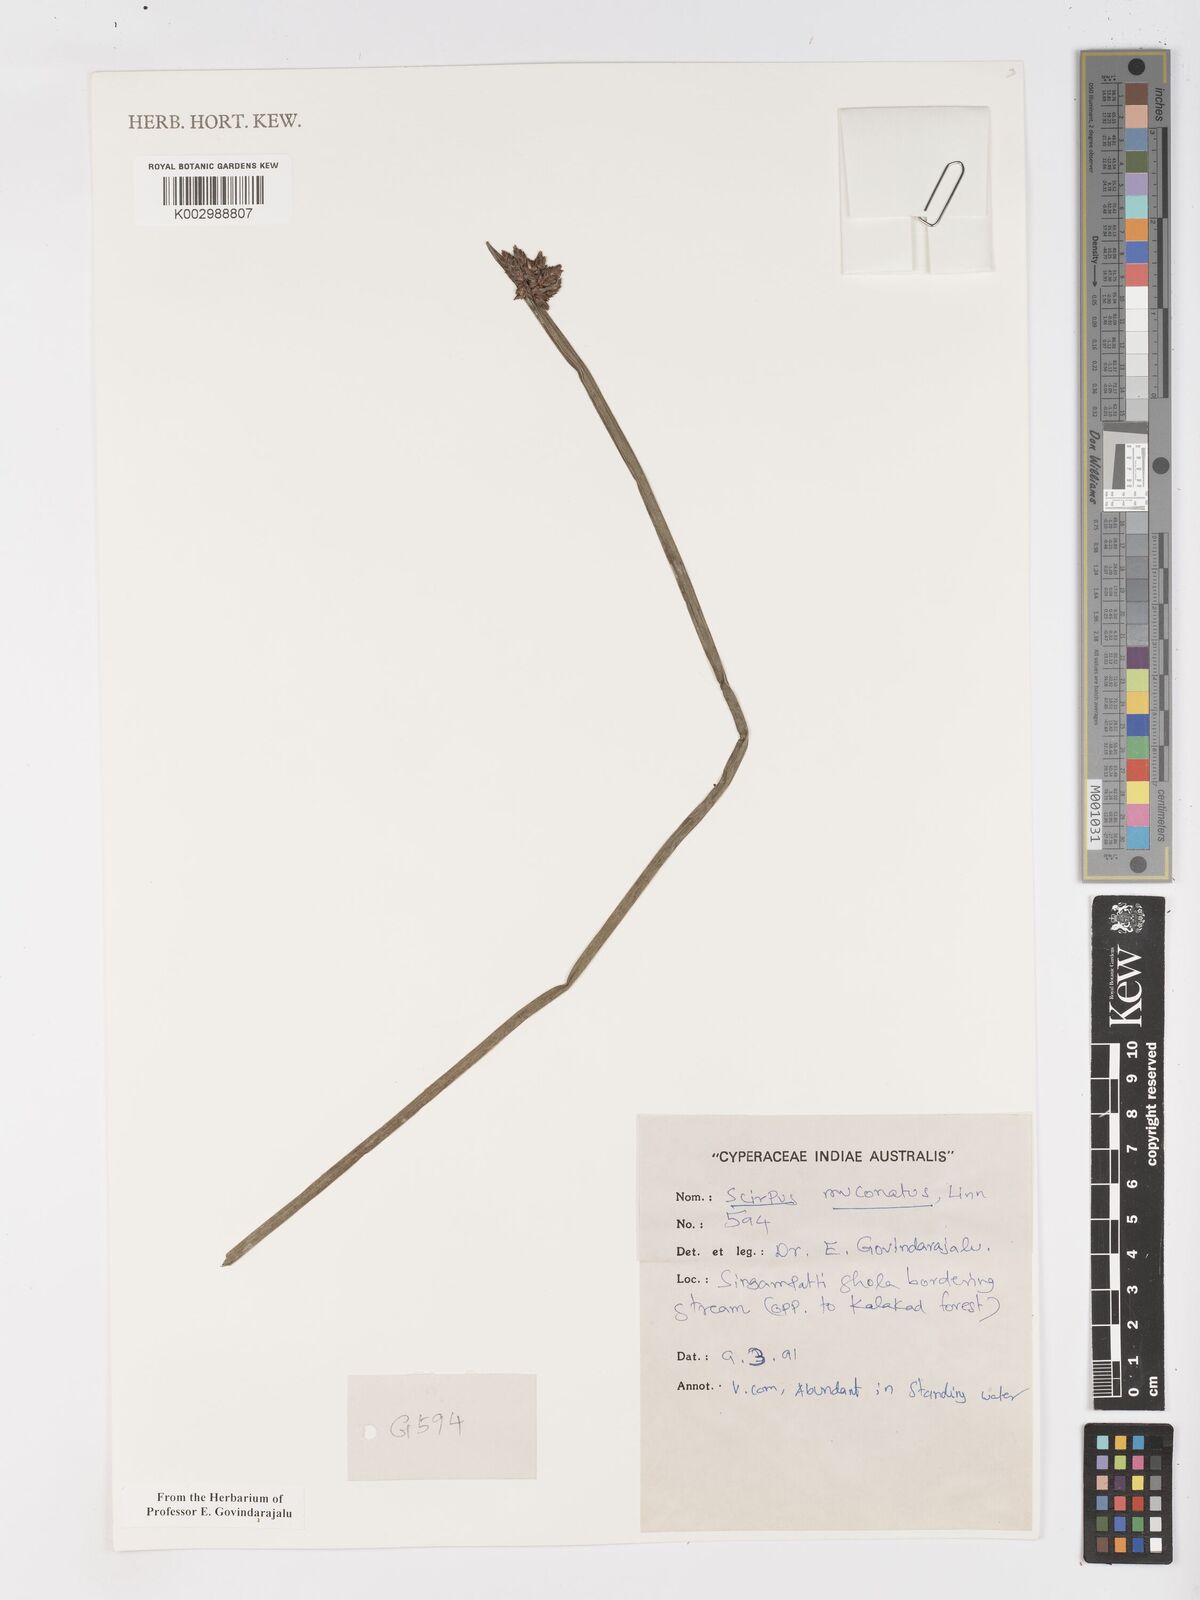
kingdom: Plantae
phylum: Tracheophyta
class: Liliopsida
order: Poales
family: Cyperaceae
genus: Schoenoplectiella
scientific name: Schoenoplectiella mucronata
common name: Bog bulrush
